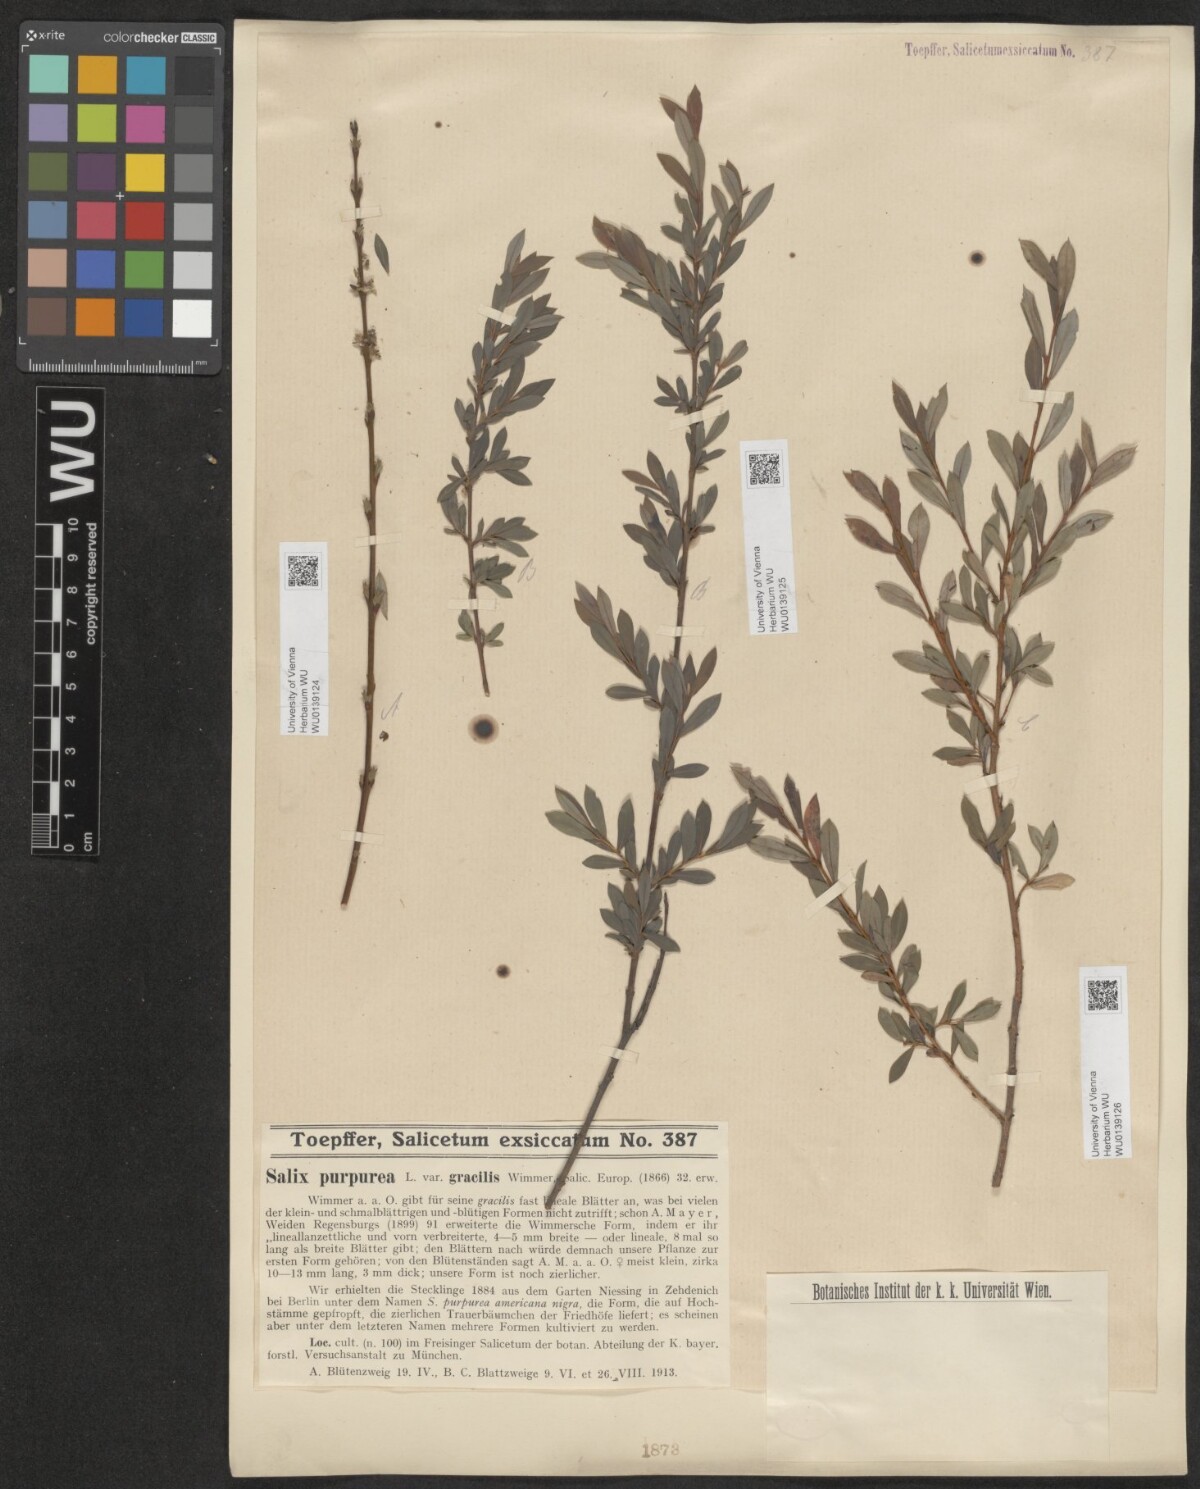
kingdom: Plantae
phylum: Tracheophyta
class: Magnoliopsida
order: Malpighiales
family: Salicaceae
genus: Salix
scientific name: Salix purpurea
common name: Purple willow
